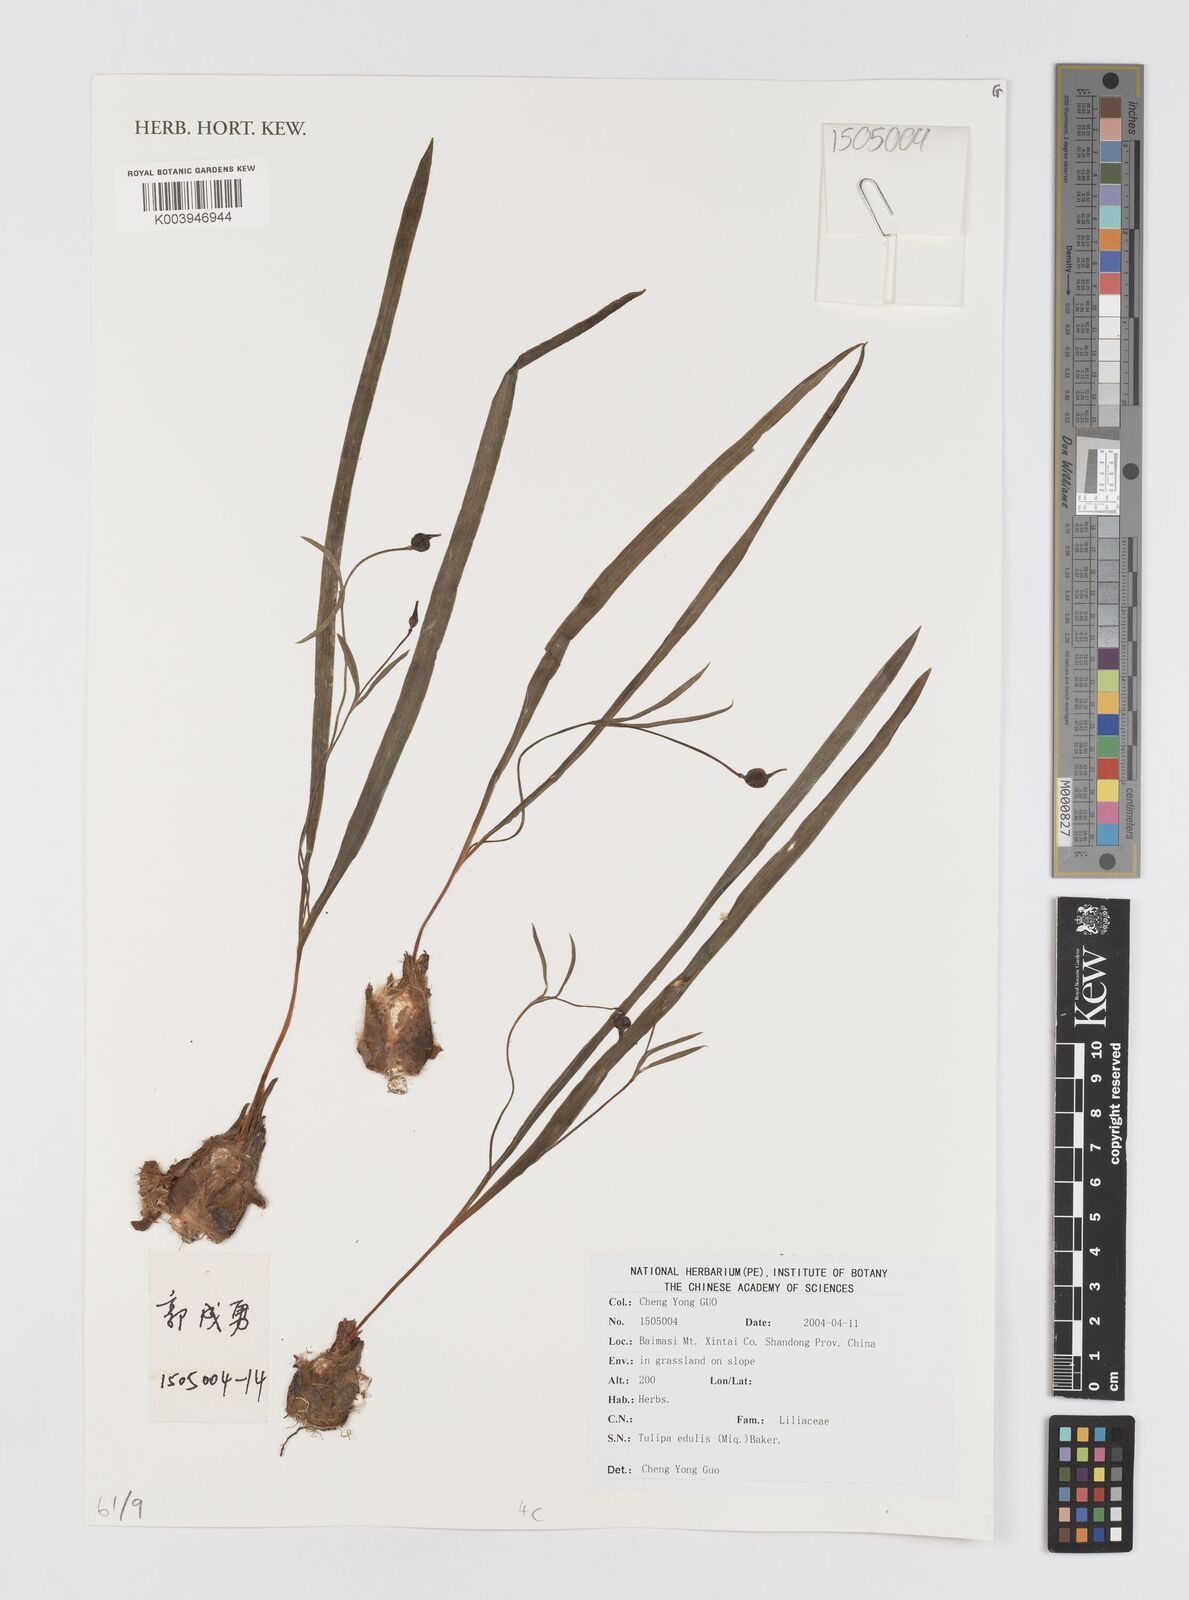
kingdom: Plantae
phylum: Tracheophyta
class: Liliopsida
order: Liliales
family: Liliaceae
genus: Amana
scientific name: Amana edulis
